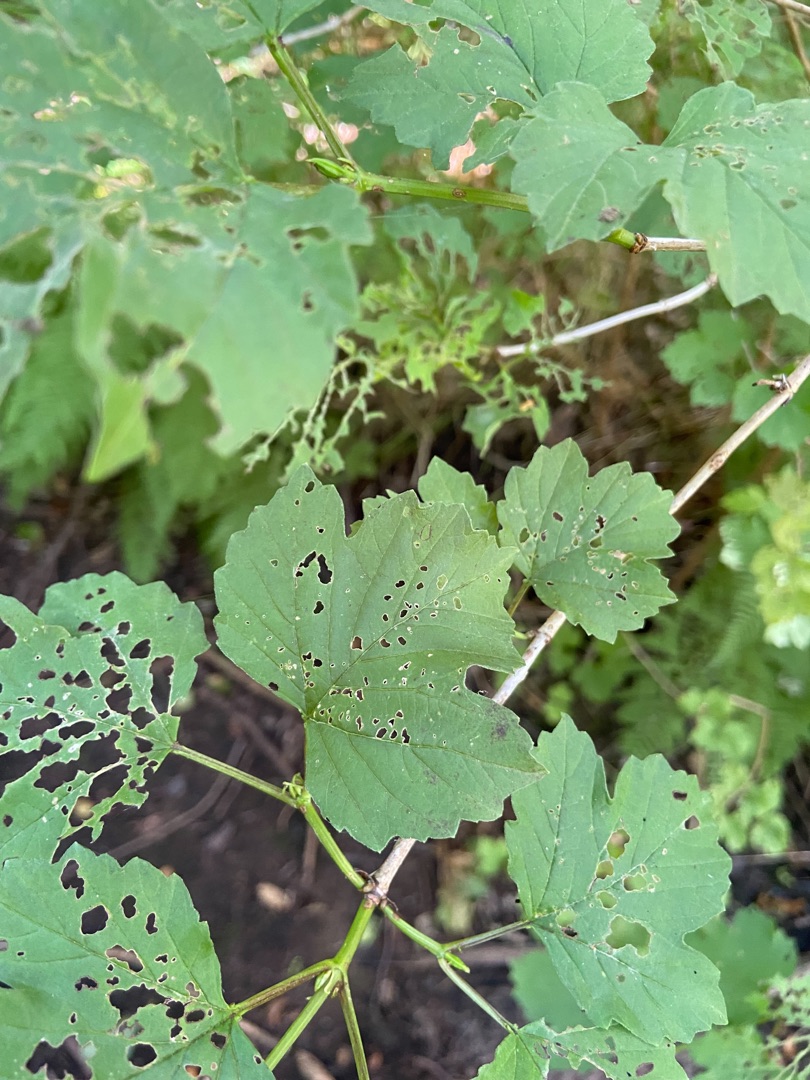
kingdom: Plantae
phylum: Tracheophyta
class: Magnoliopsida
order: Dipsacales
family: Viburnaceae
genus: Viburnum
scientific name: Viburnum opulus
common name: Kvalkved
